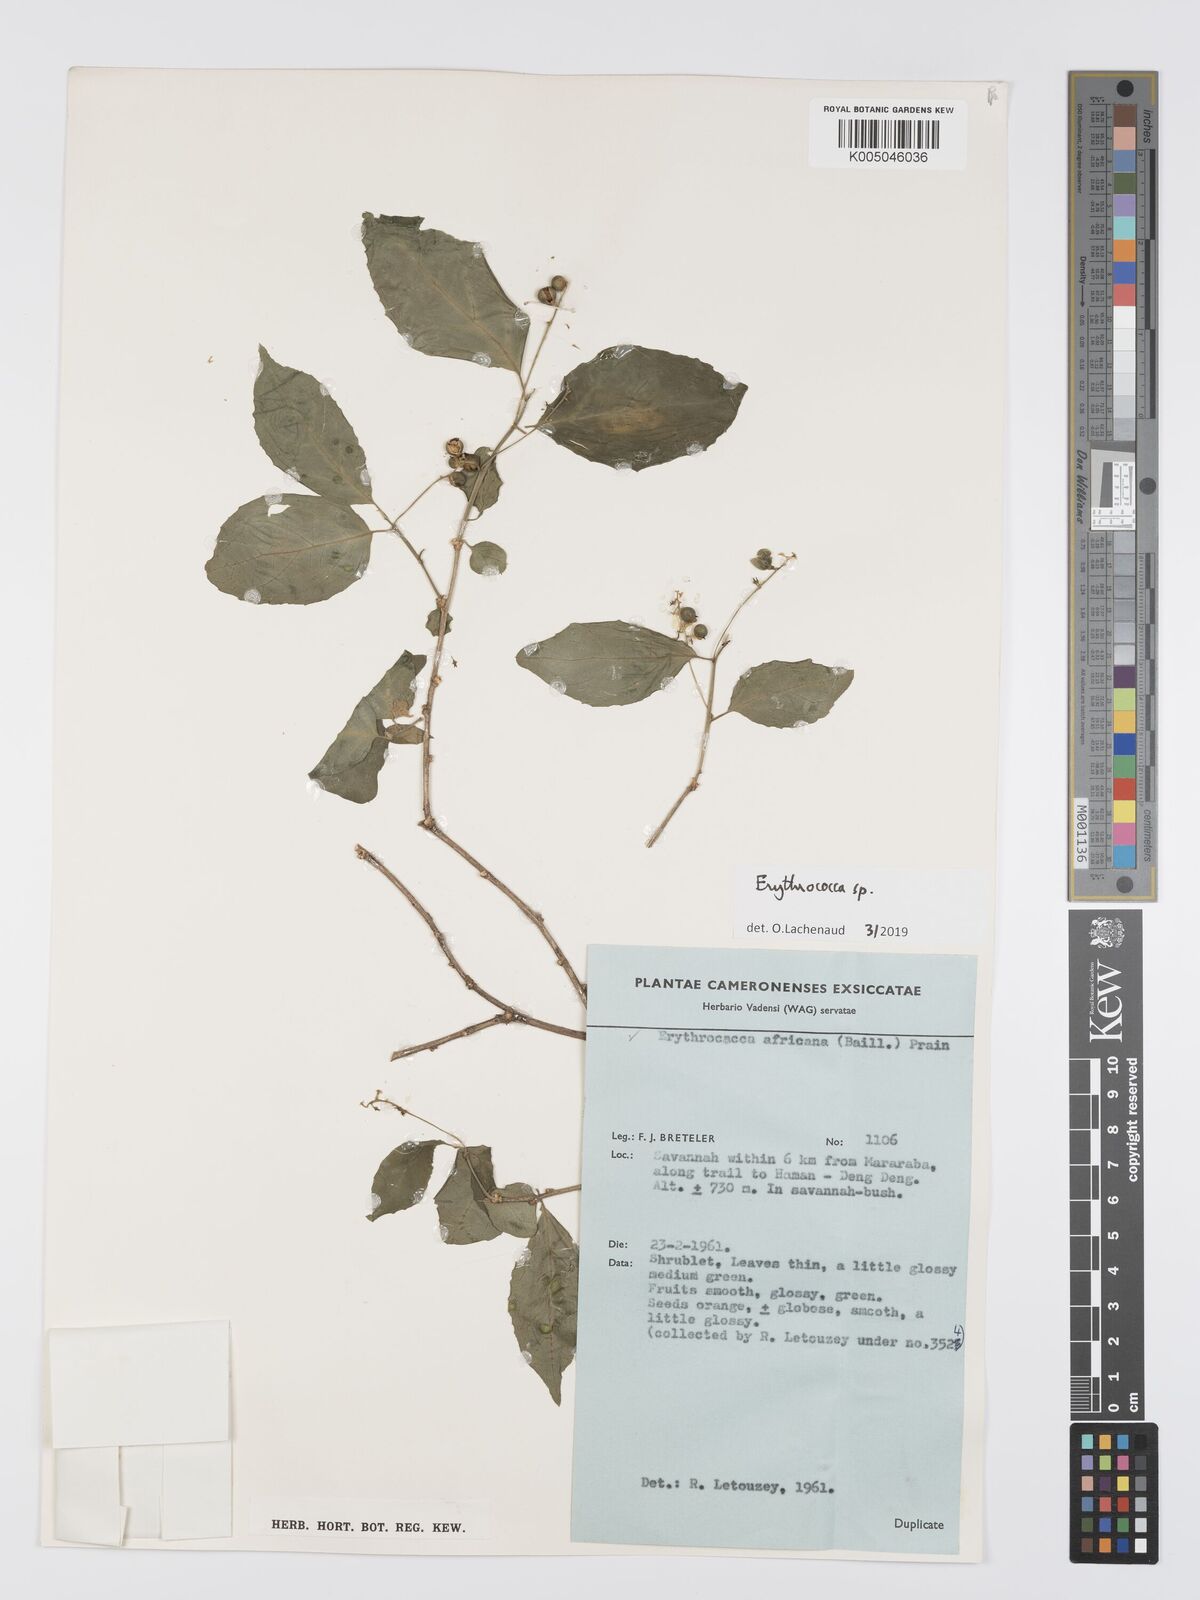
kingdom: Plantae
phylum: Tracheophyta
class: Magnoliopsida
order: Malpighiales
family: Euphorbiaceae
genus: Erythrococca
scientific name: Erythrococca
